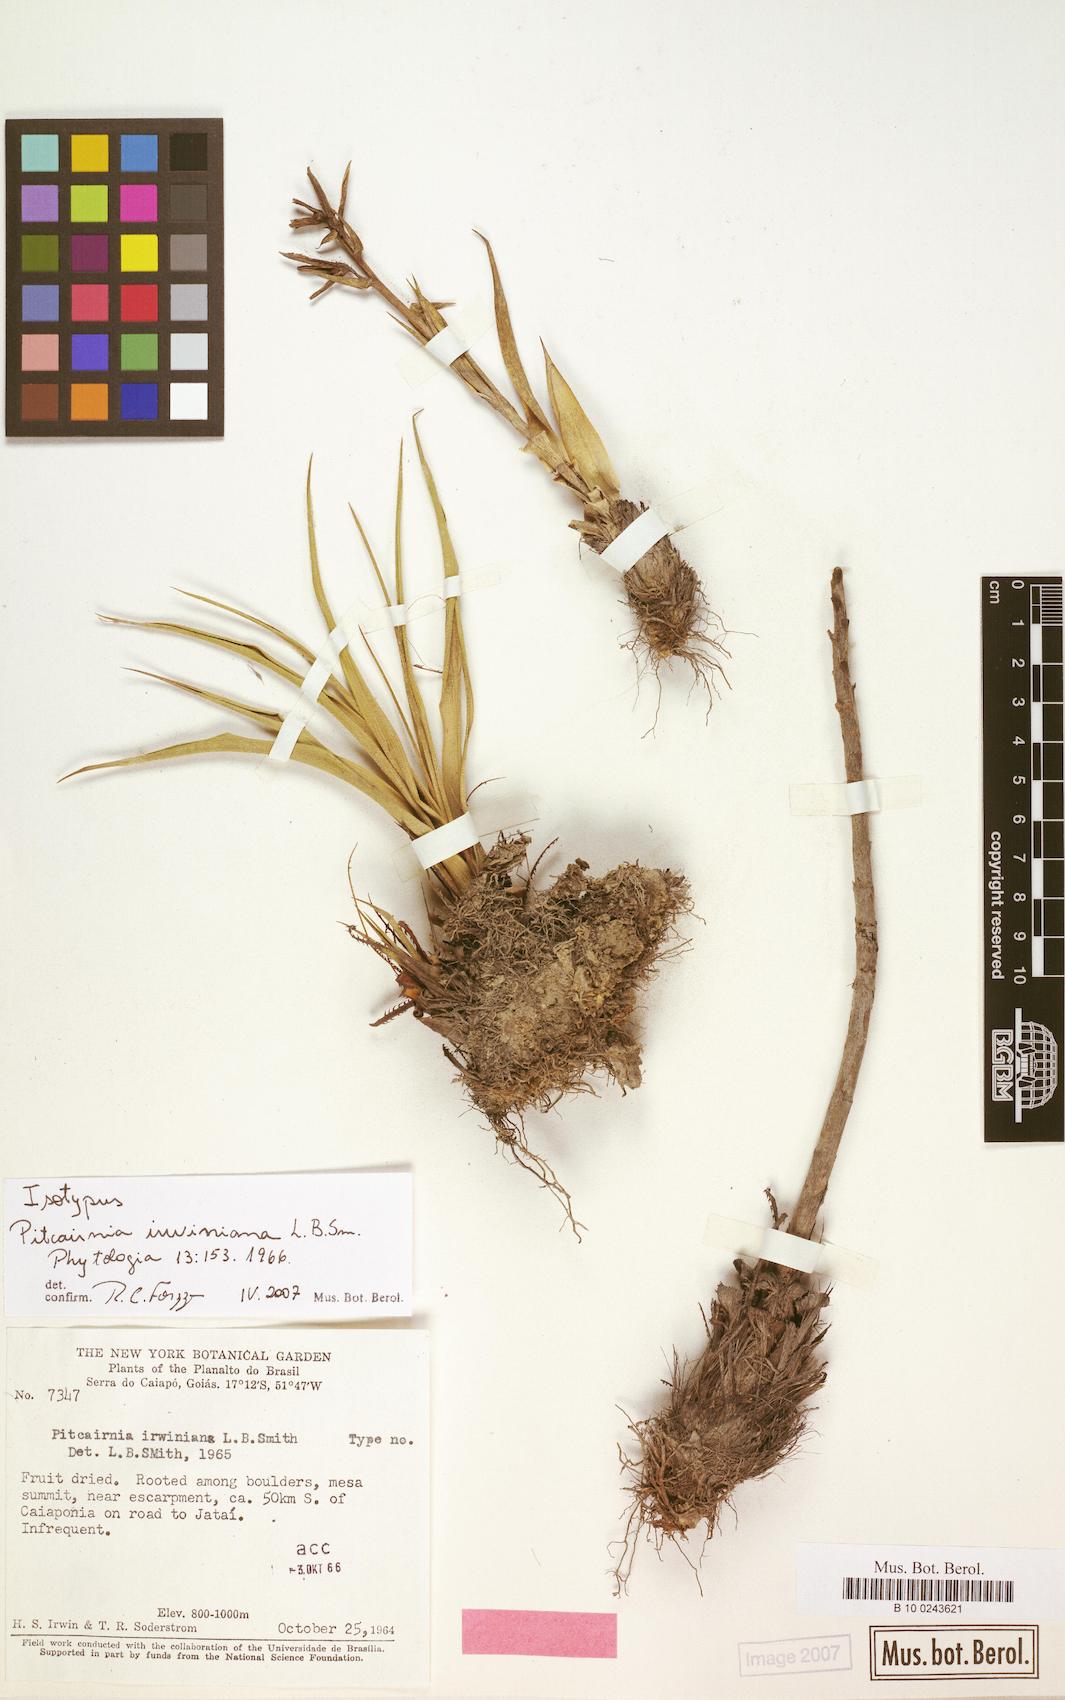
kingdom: Plantae
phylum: Tracheophyta
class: Liliopsida
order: Poales
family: Bromeliaceae
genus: Pitcairnia
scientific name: Pitcairnia irwiniana
